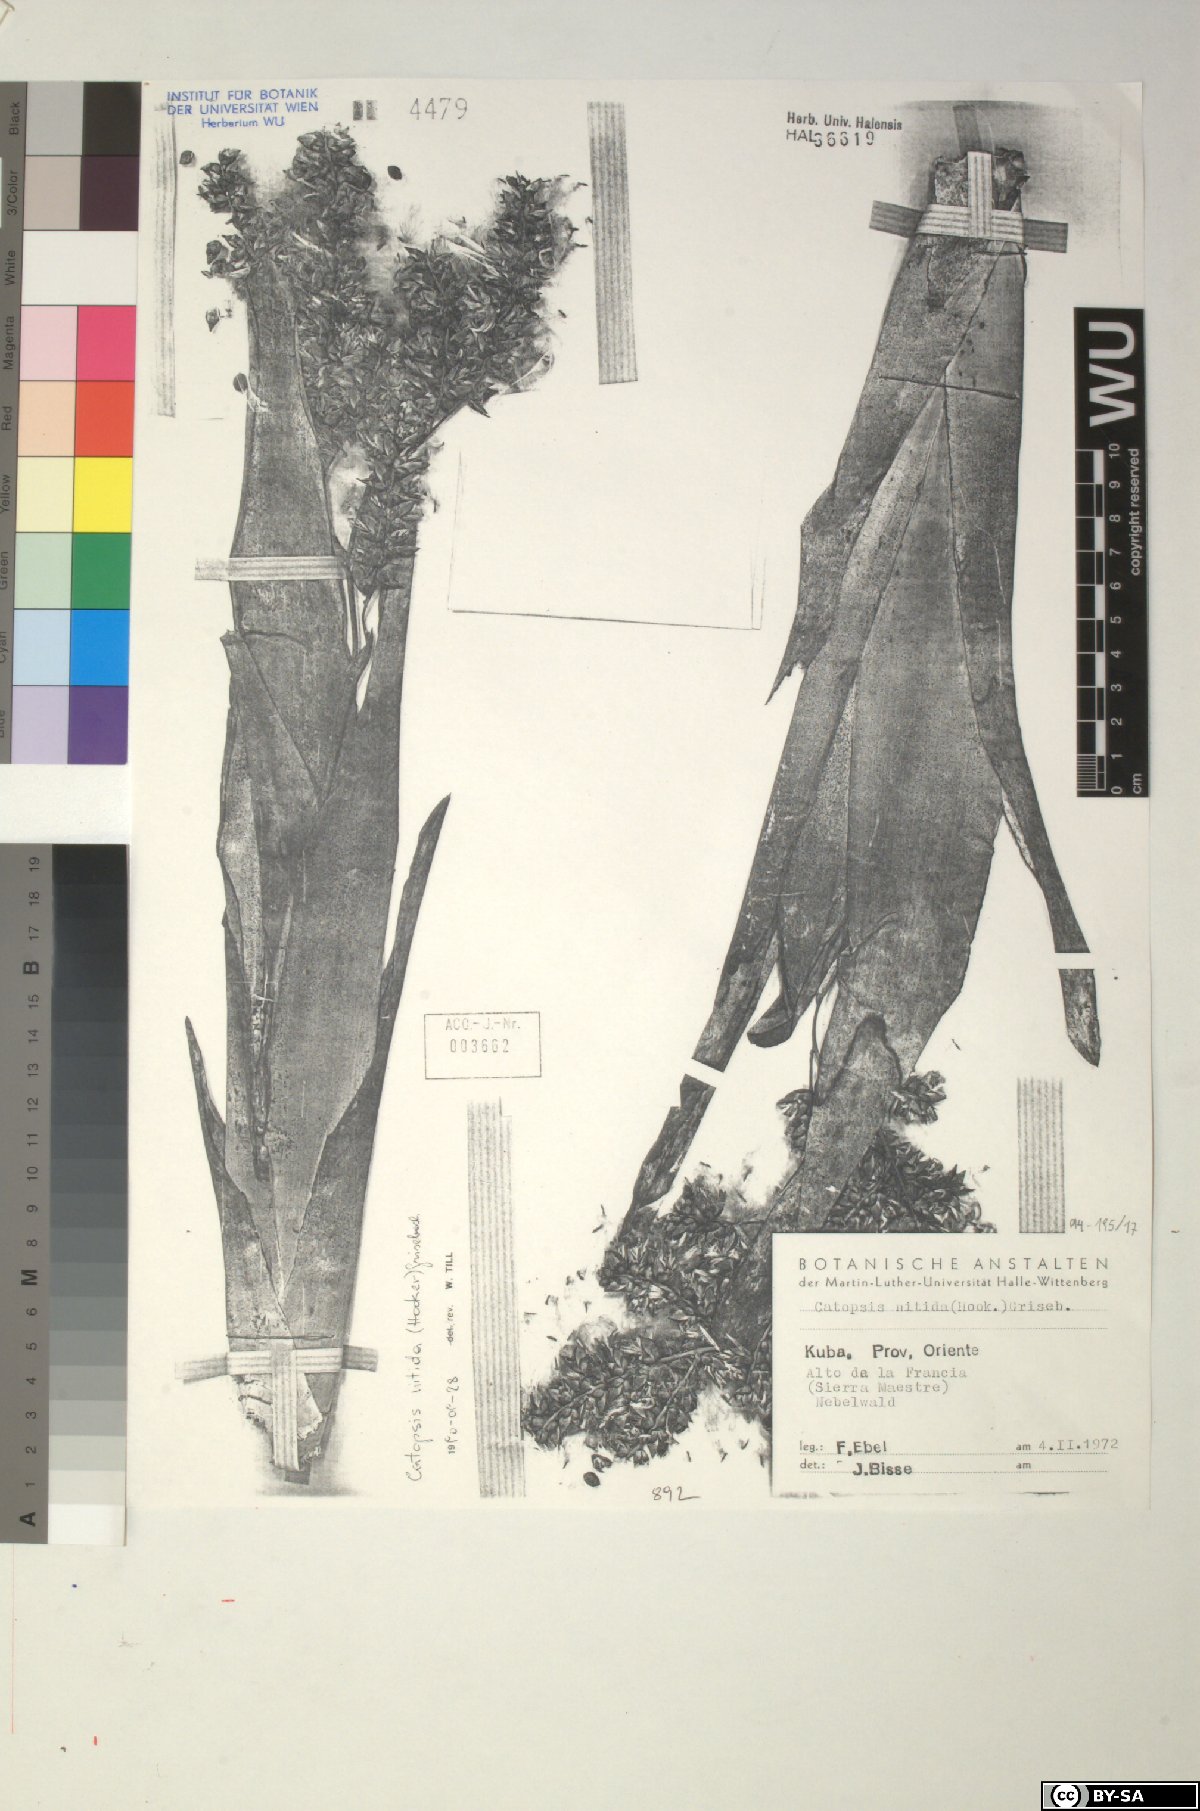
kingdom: Plantae
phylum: Tracheophyta
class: Liliopsida
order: Poales
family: Bromeliaceae
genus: Catopsis
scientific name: Catopsis nitida
